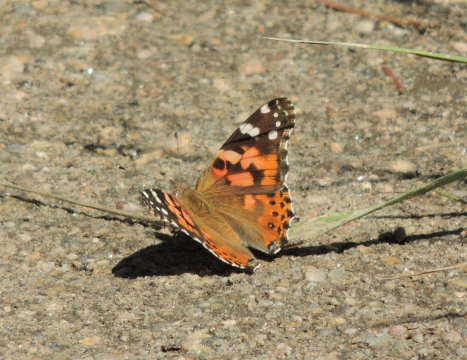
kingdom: Animalia
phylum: Arthropoda
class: Insecta
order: Lepidoptera
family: Nymphalidae
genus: Vanessa
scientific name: Vanessa cardui
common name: Painted Lady
